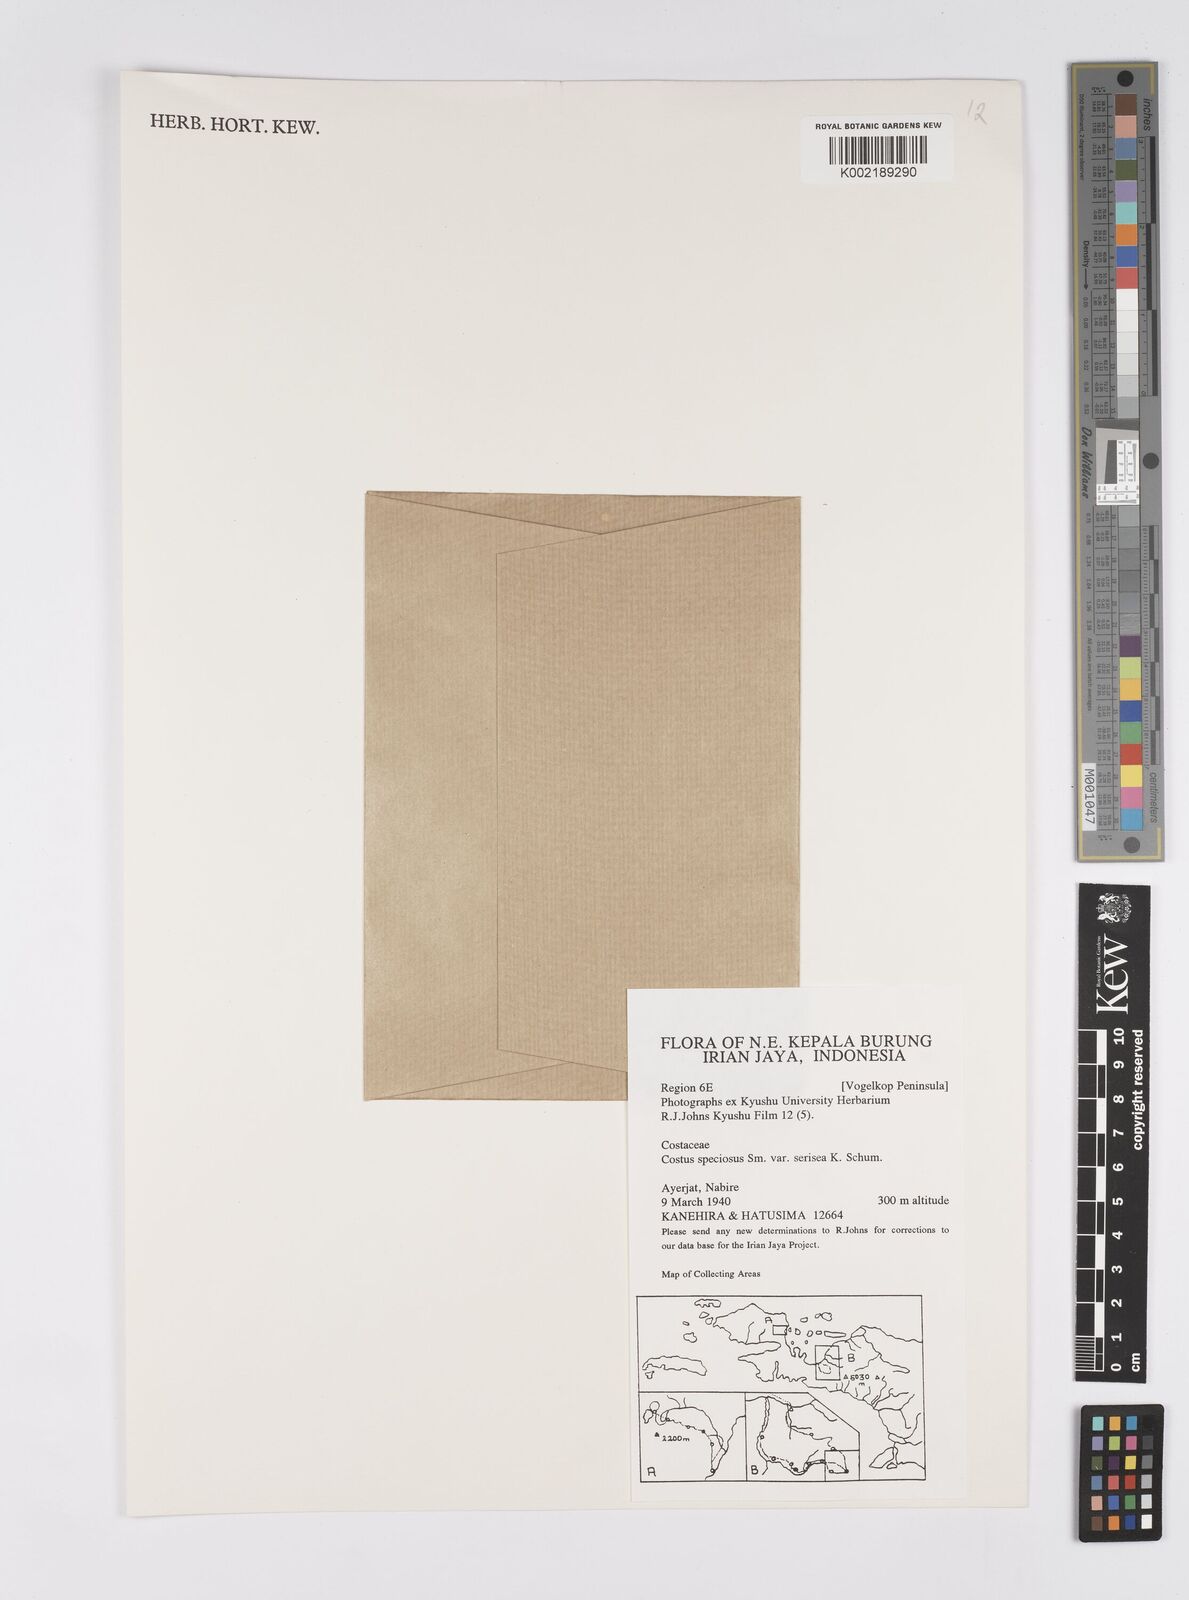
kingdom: Plantae
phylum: Tracheophyta
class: Liliopsida
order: Zingiberales
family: Costaceae
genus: Hellenia
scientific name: Hellenia speciosa
